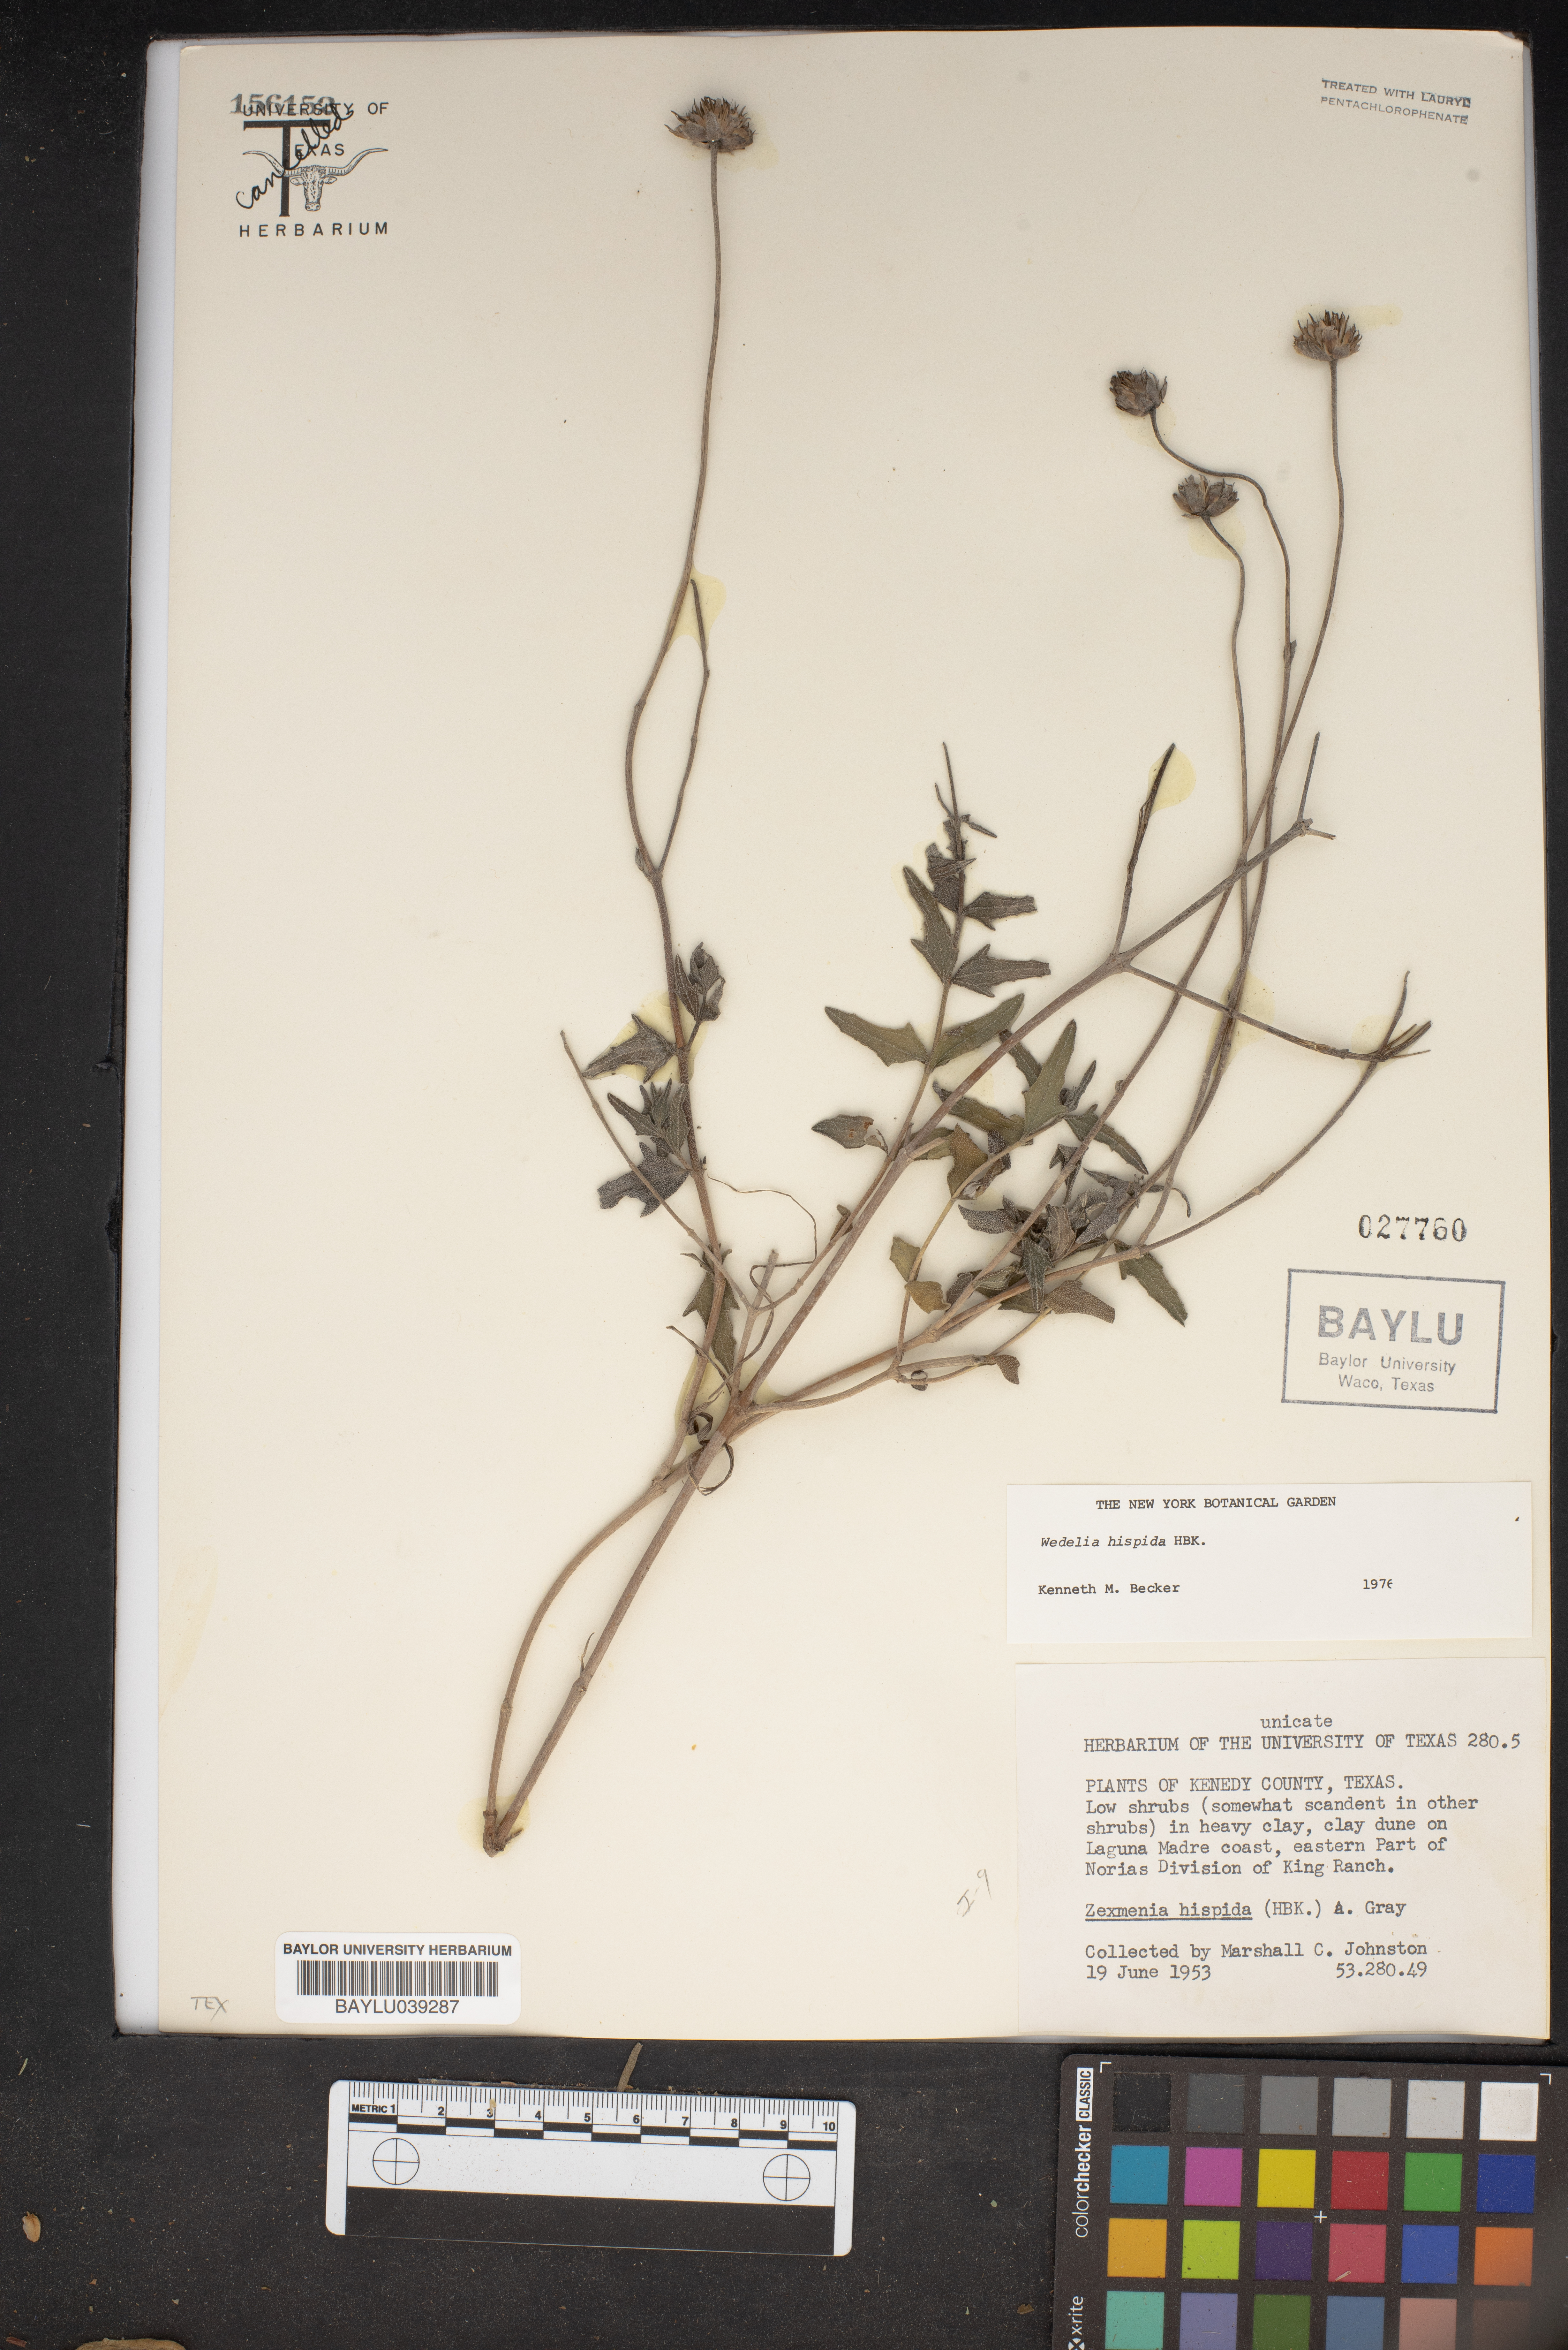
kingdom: Plantae
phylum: Tracheophyta
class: Magnoliopsida
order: Asterales
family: Asteraceae
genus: Wedelia
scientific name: Wedelia acapulcensis
